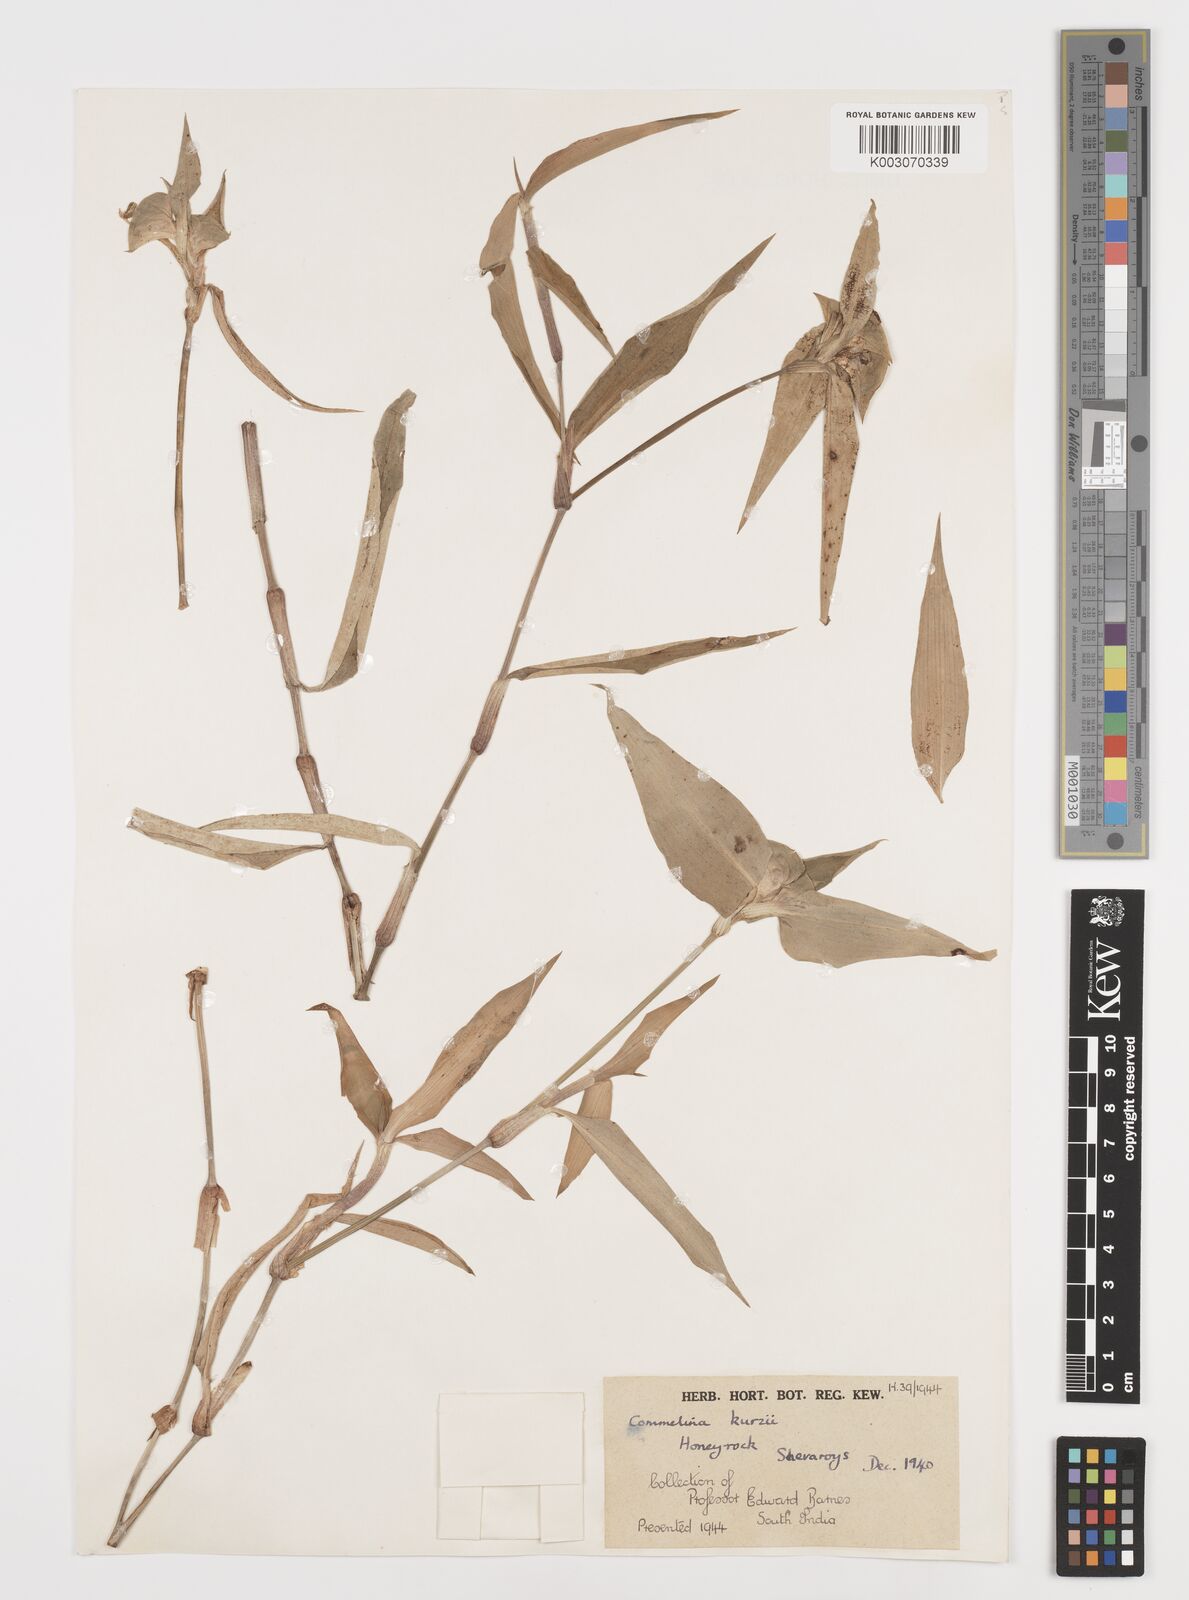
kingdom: Plantae
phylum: Tracheophyta
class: Liliopsida
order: Commelinales
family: Commelinaceae
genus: Commelina
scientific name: Commelina undulata
